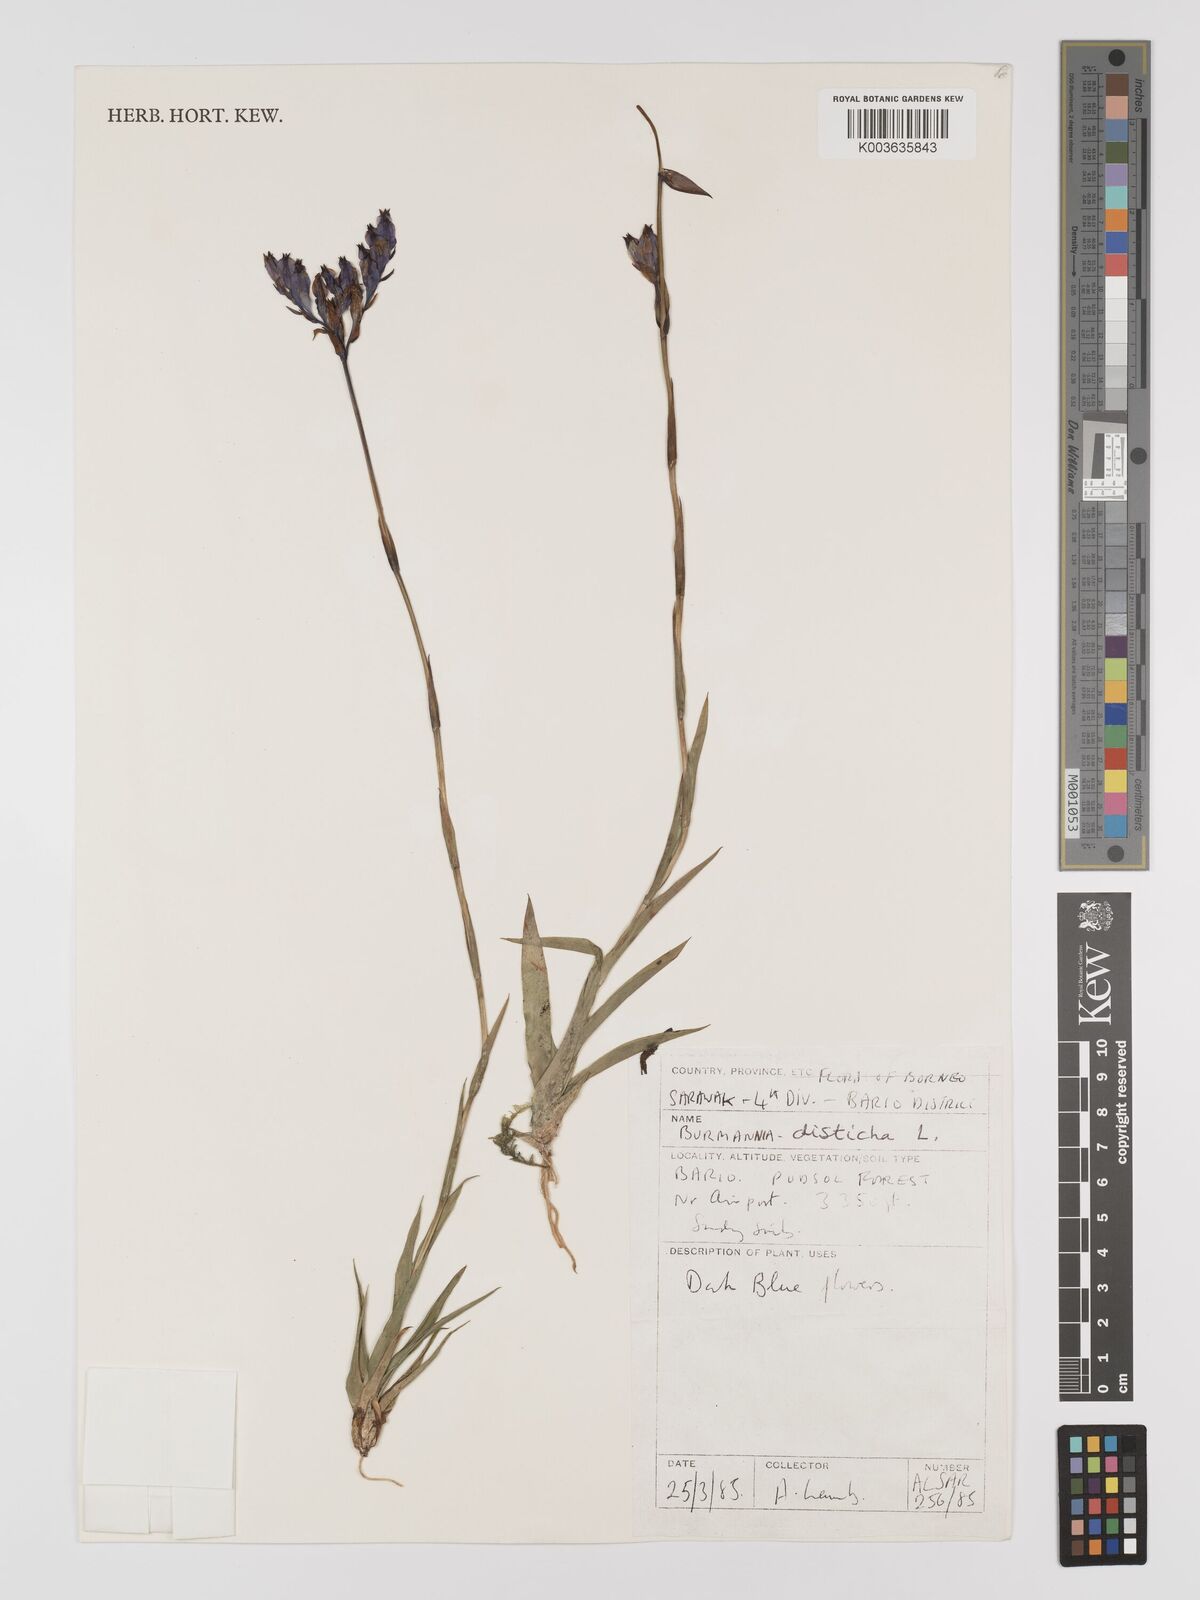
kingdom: Plantae
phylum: Tracheophyta
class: Liliopsida
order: Dioscoreales
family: Burmanniaceae
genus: Burmannia
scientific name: Burmannia disticha
